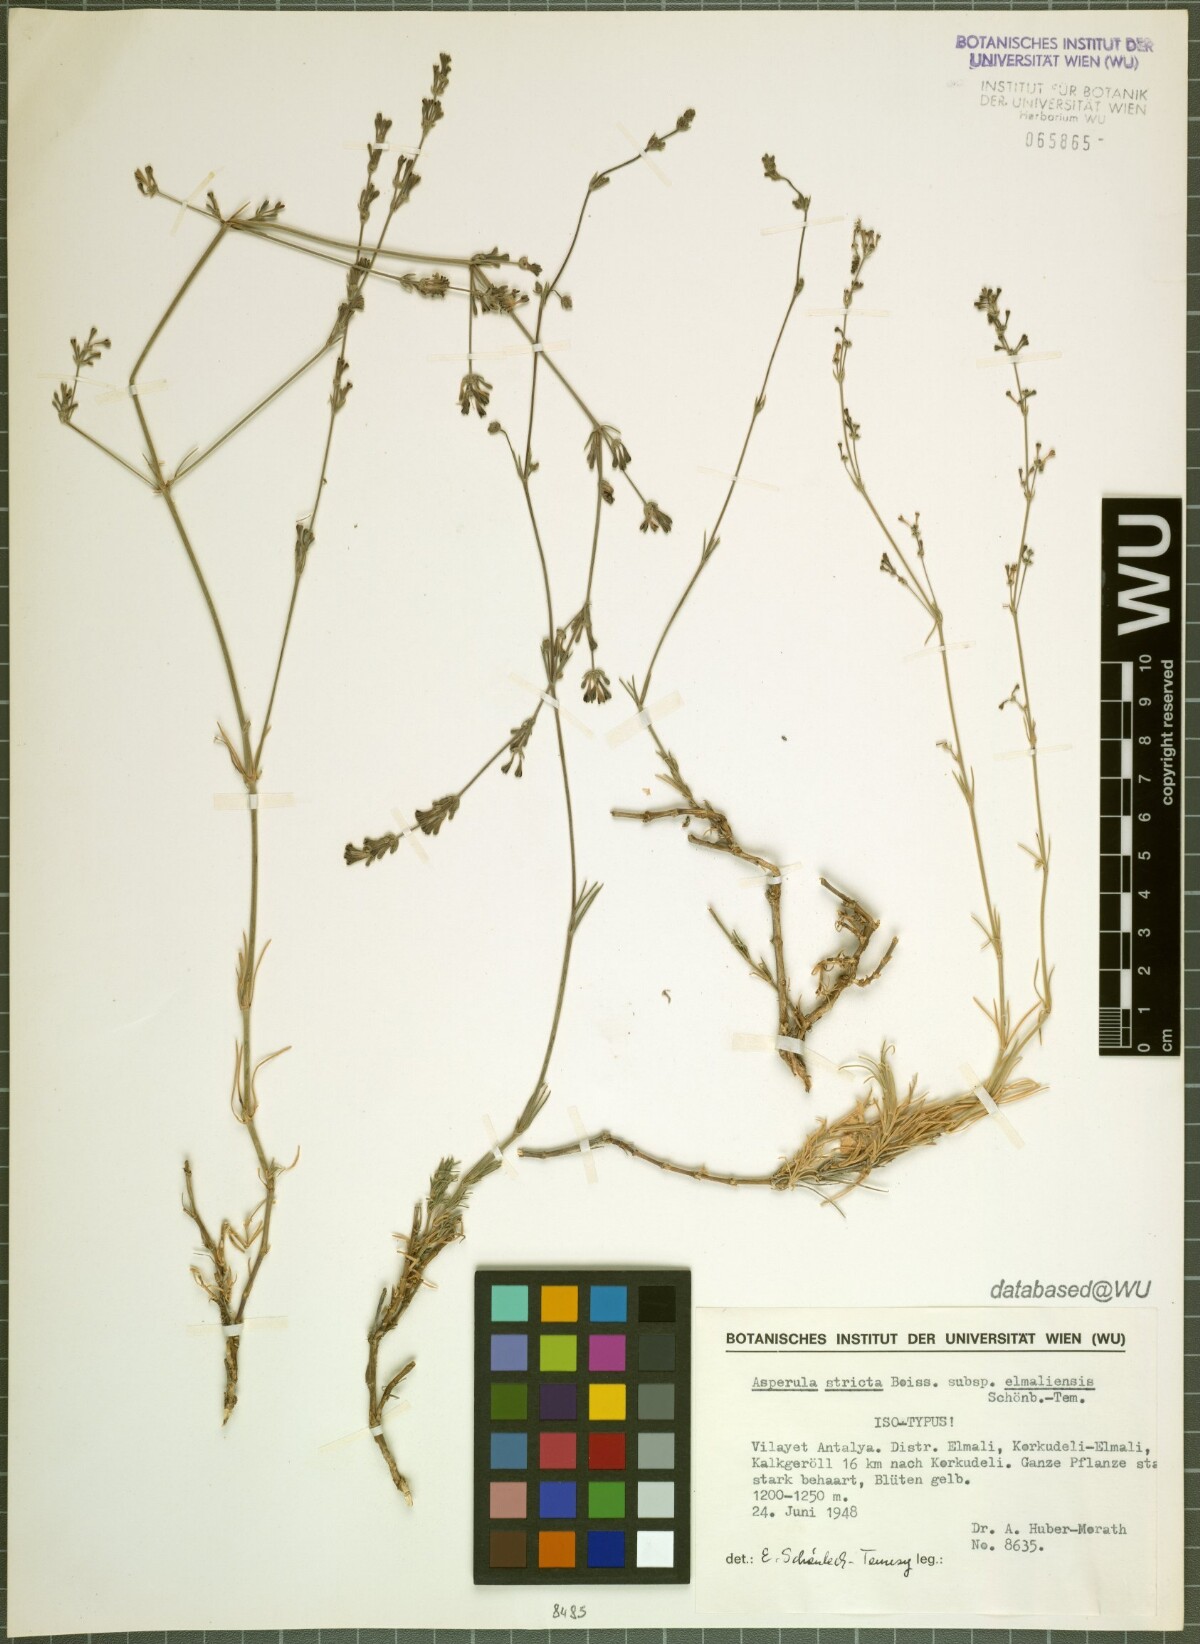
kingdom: Plantae
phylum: Tracheophyta
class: Magnoliopsida
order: Gentianales
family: Rubiaceae
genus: Cynanchica
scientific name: Cynanchica stricta
